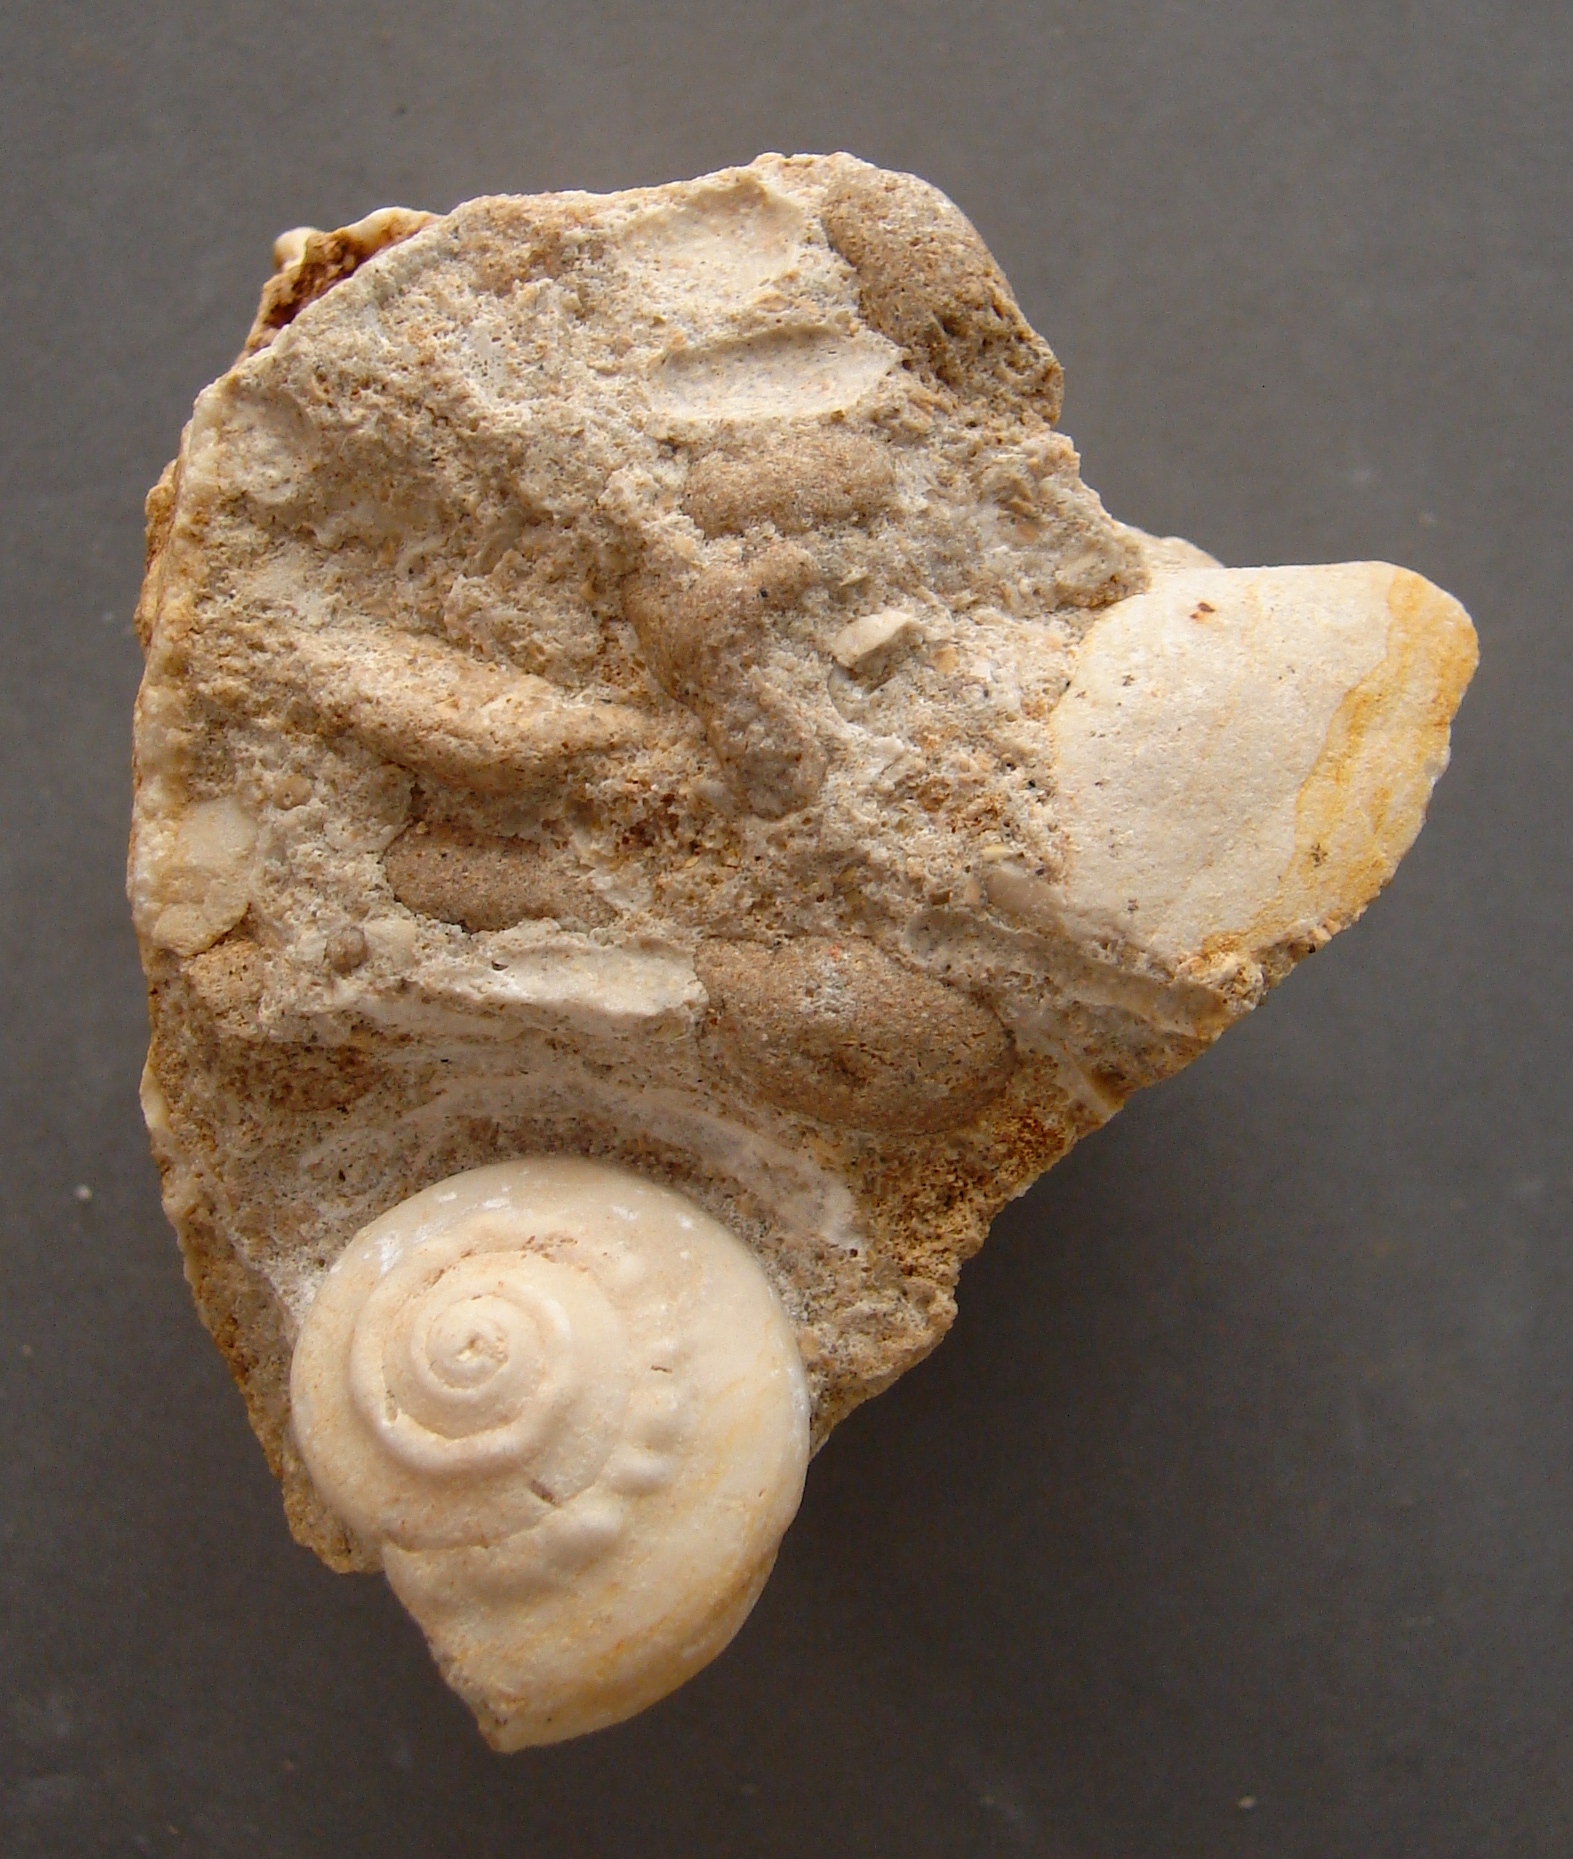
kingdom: Animalia
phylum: Mollusca
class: Gastropoda
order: Pleurotomariida
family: Ptychomphalidae
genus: Ptychomphalus
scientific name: Ptychomphalus Pleurotomaria wehenkeli
